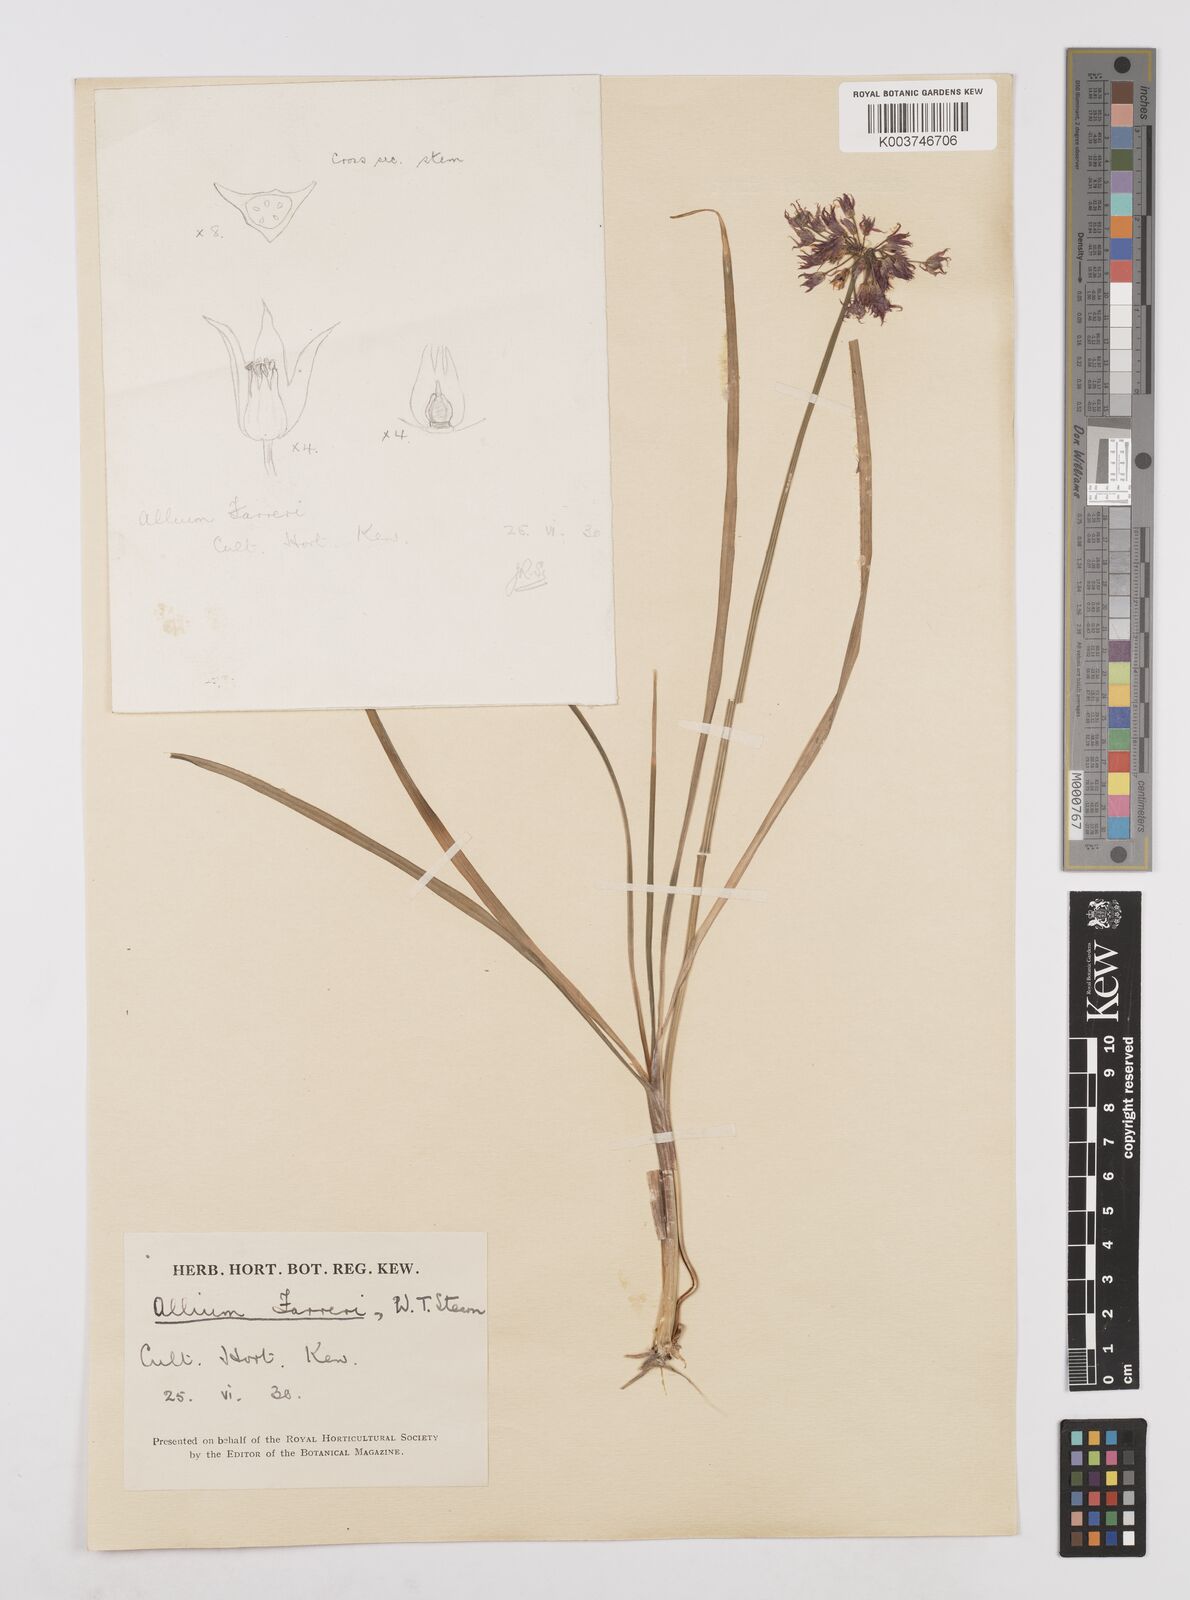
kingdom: Plantae
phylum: Tracheophyta
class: Liliopsida
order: Asparagales
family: Amaryllidaceae
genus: Allium
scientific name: Allium farreri
